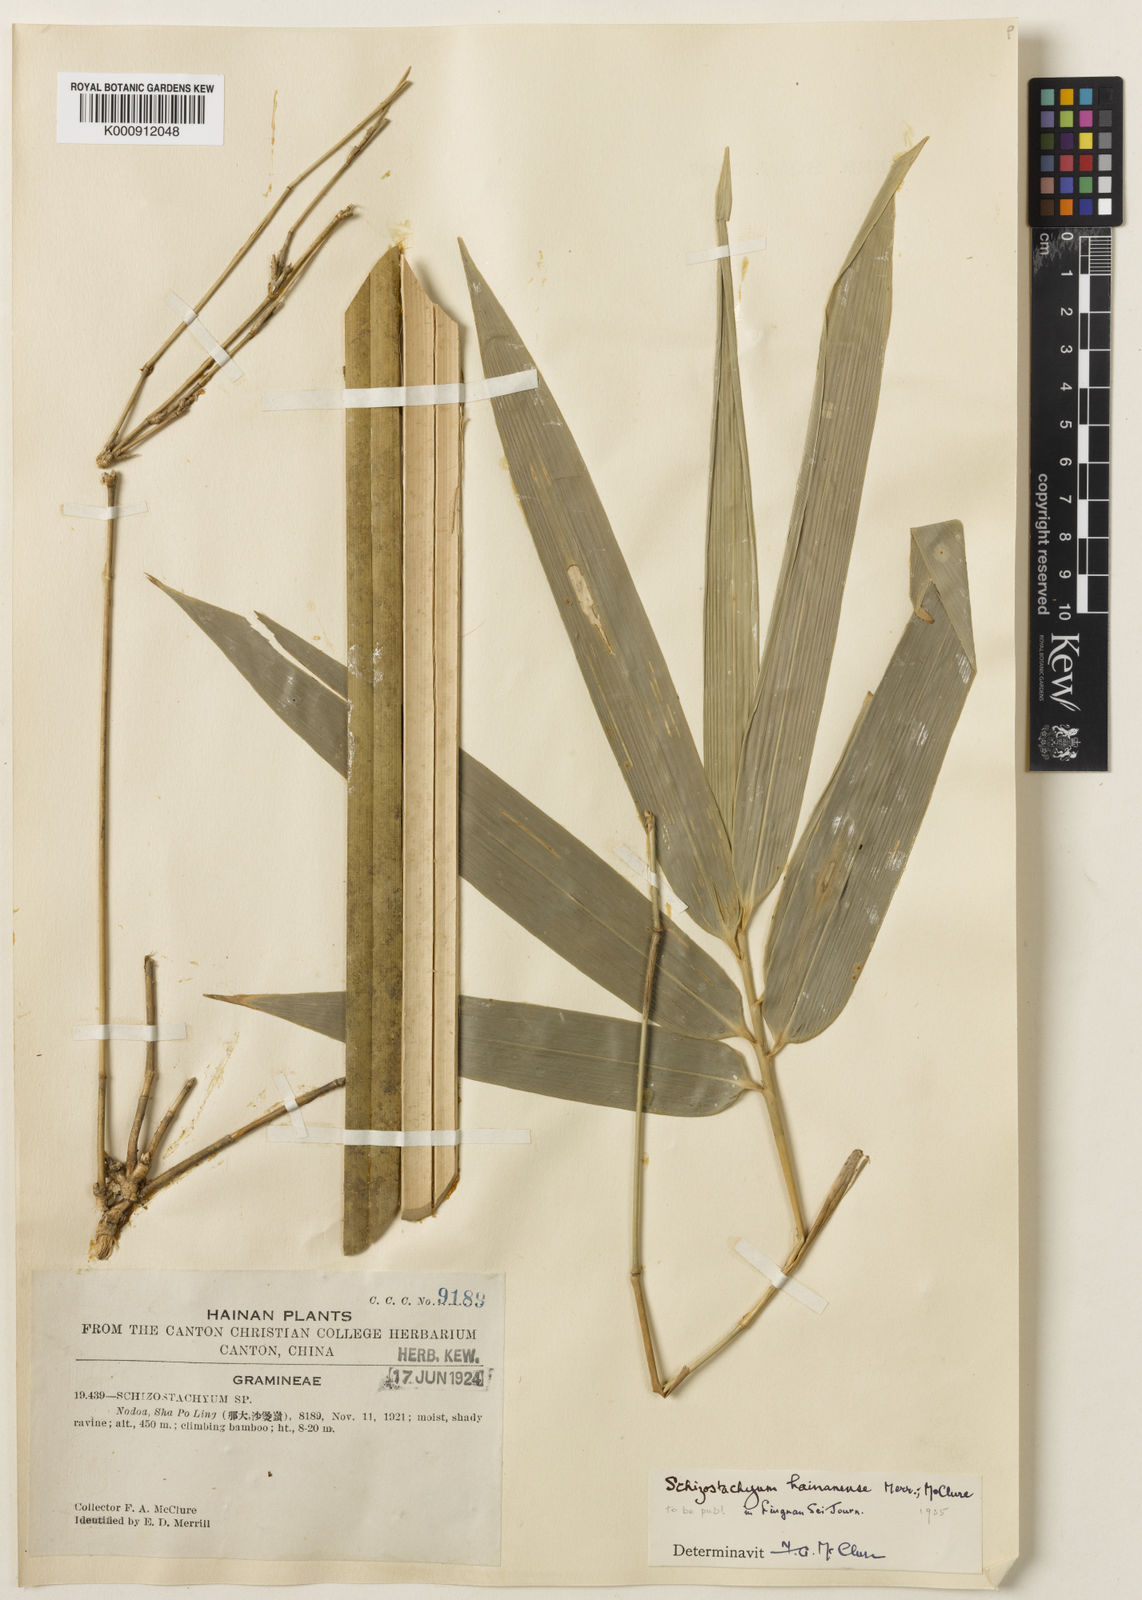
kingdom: Plantae
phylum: Tracheophyta
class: Liliopsida
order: Poales
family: Poaceae
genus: Schizostachyum
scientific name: Schizostachyum hainanense
